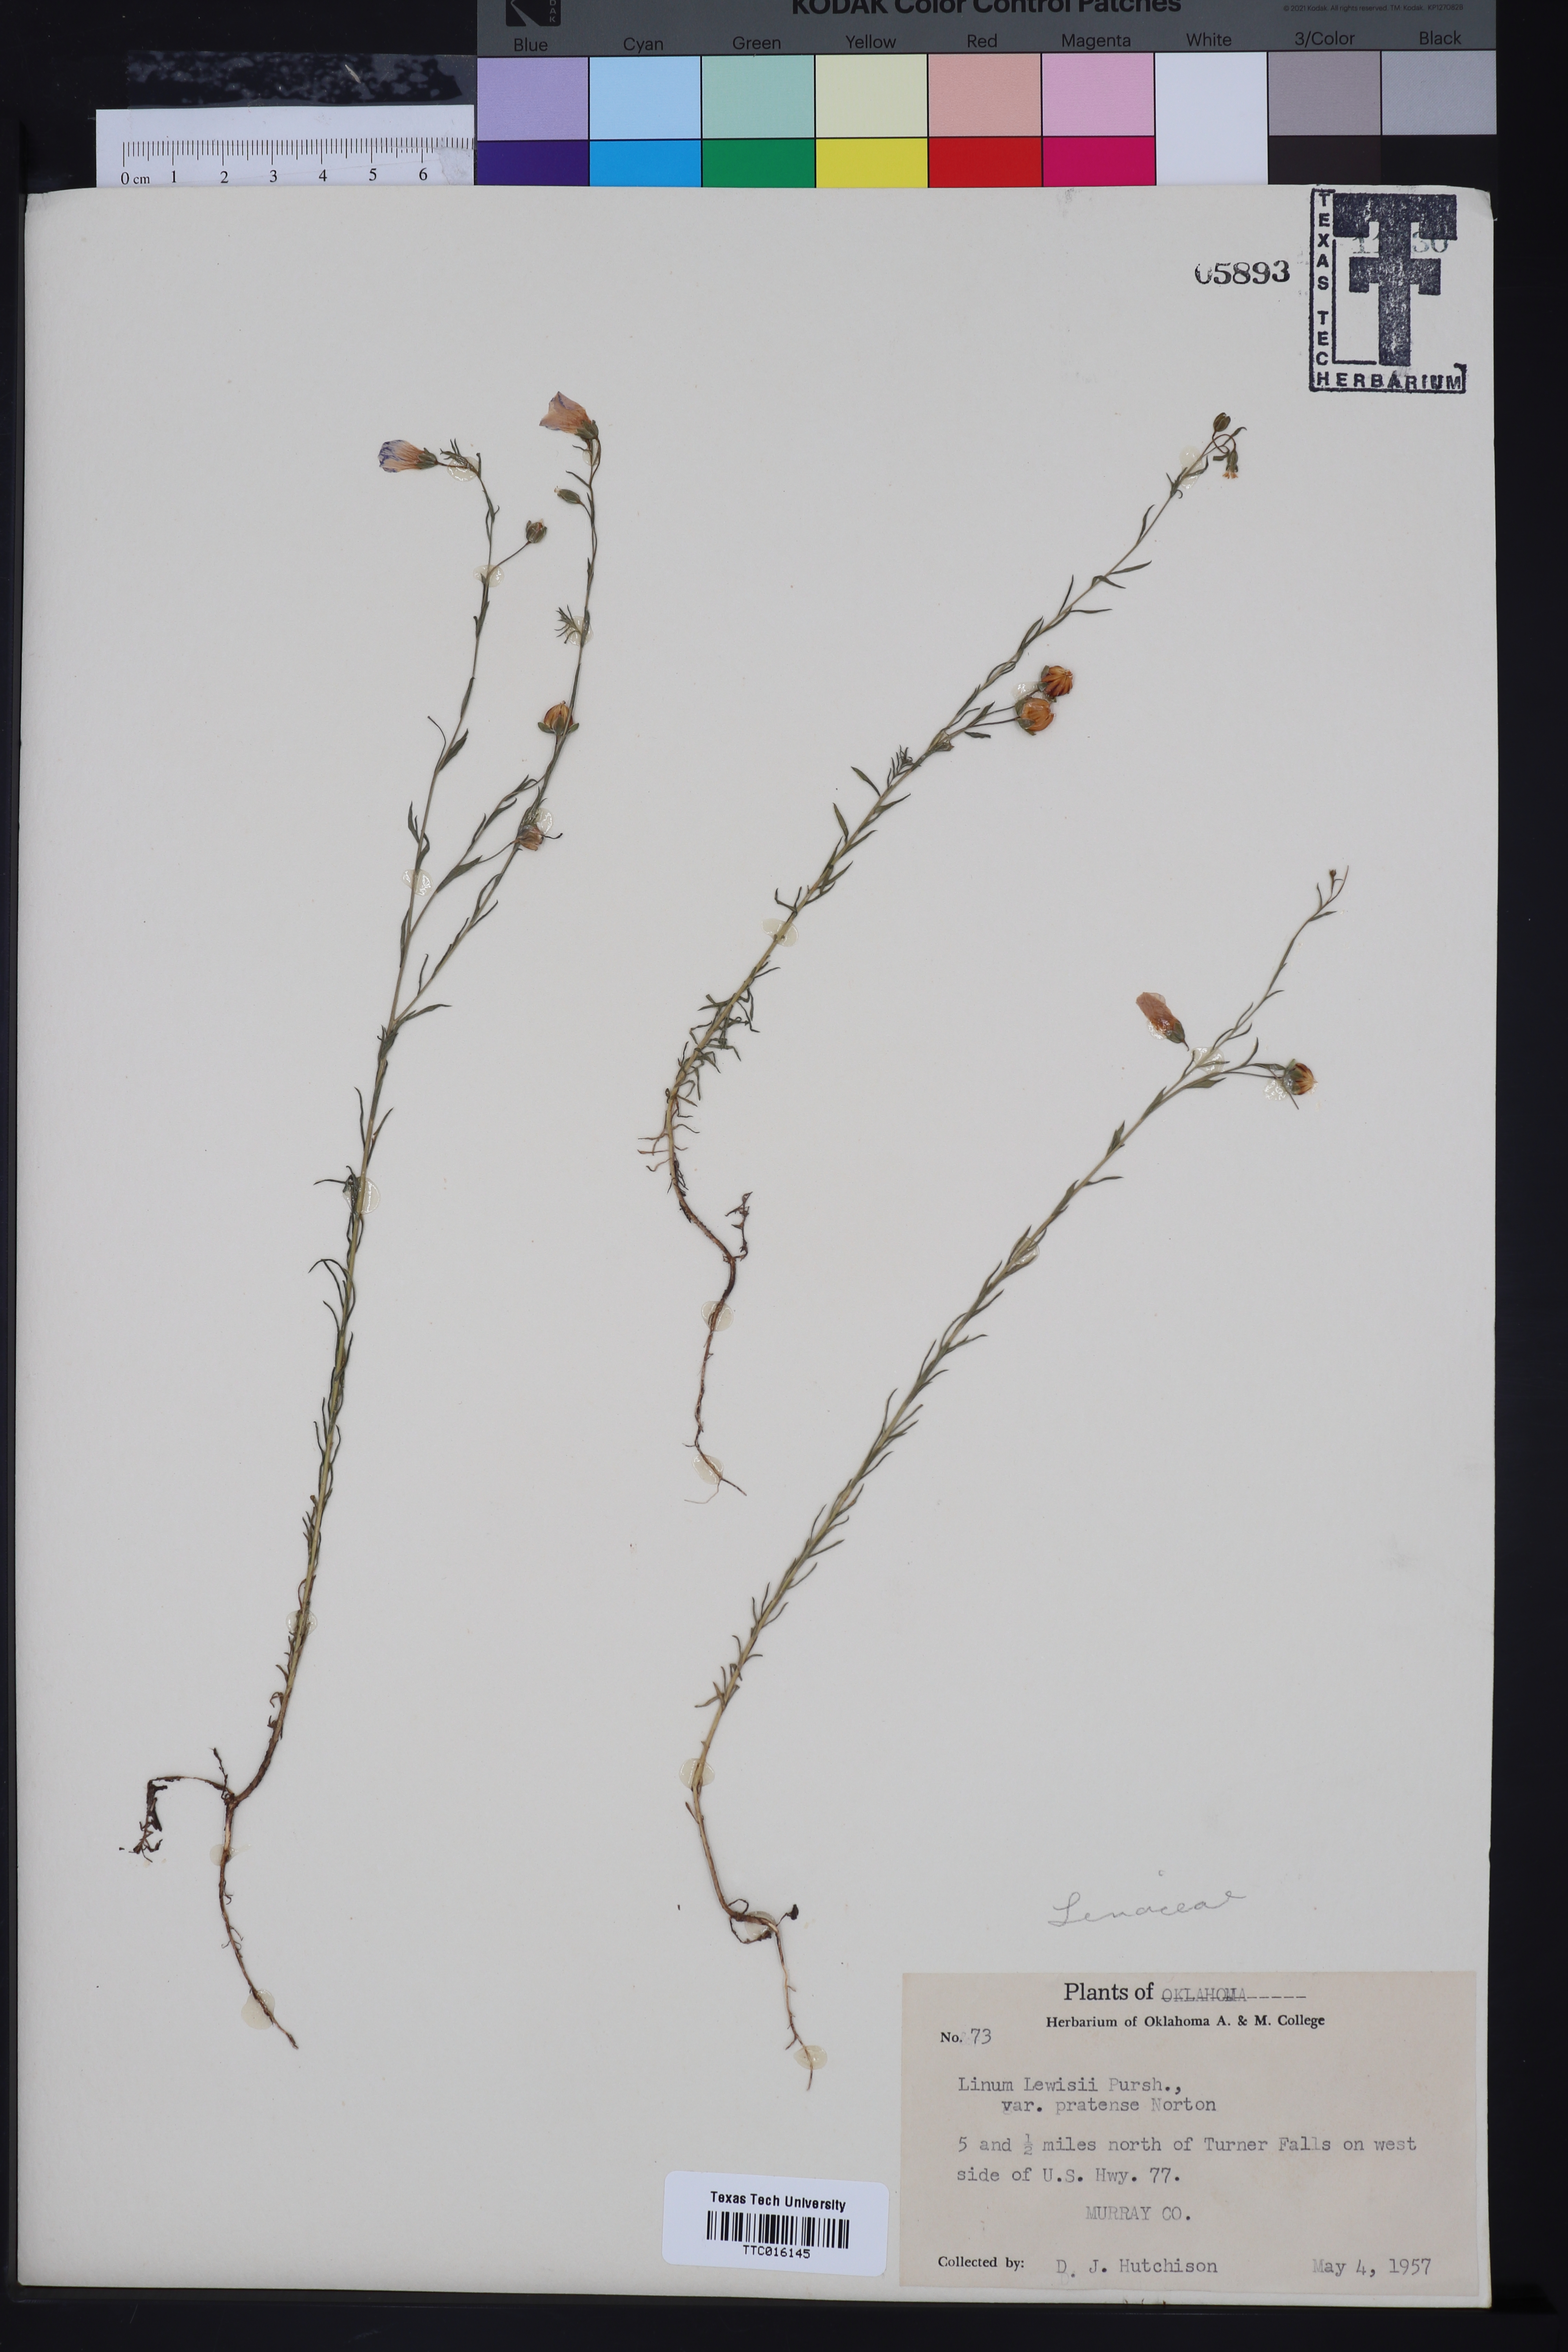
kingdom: Plantae
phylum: Tracheophyta
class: Magnoliopsida
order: Malpighiales
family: Linaceae
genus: Linum
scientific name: Linum lewisii
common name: Prairie flax
